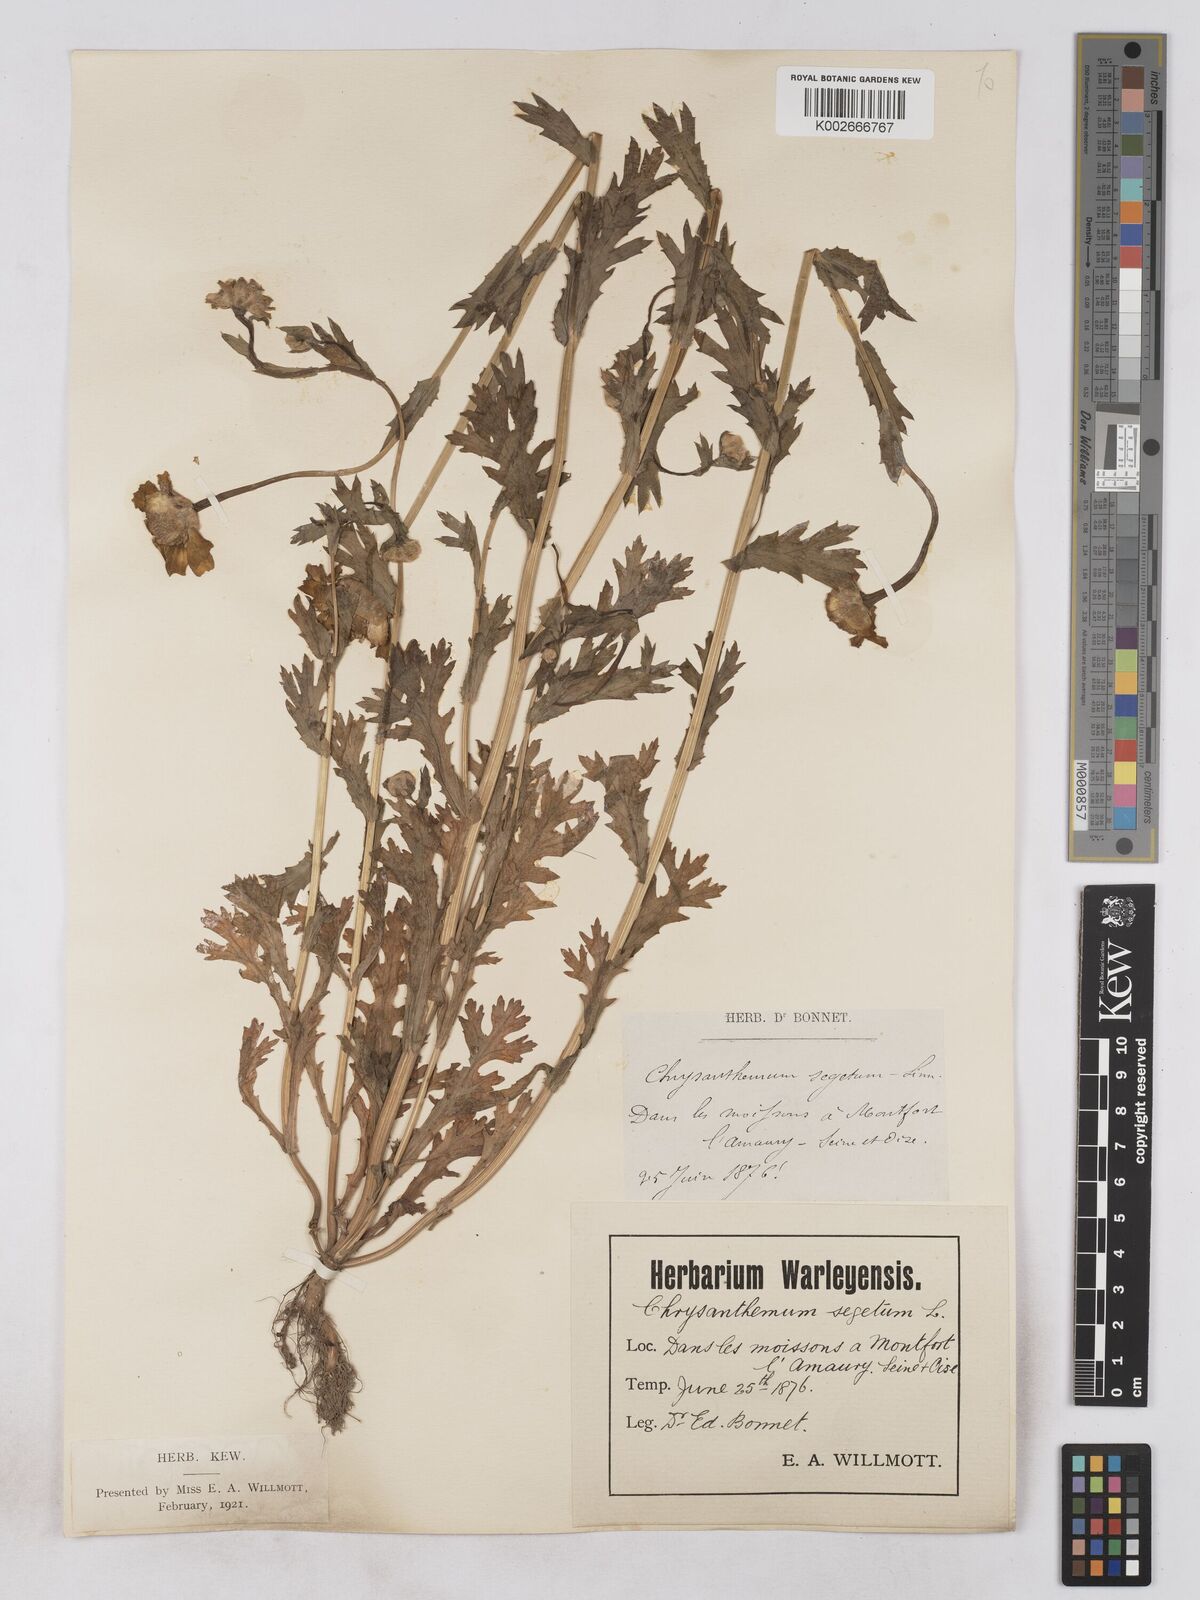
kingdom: Plantae
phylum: Tracheophyta
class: Magnoliopsida
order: Asterales
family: Asteraceae
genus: Glebionis
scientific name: Glebionis segetum
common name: Corndaisy
